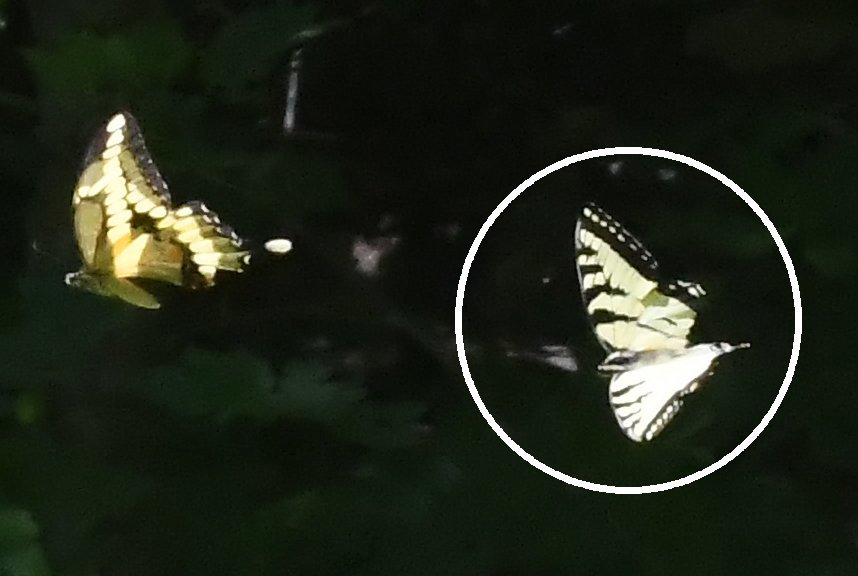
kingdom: Animalia
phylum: Arthropoda
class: Insecta
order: Lepidoptera
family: Papilionidae
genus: Pterourus
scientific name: Pterourus canadensis
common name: Canadian Tiger Swallowtail
